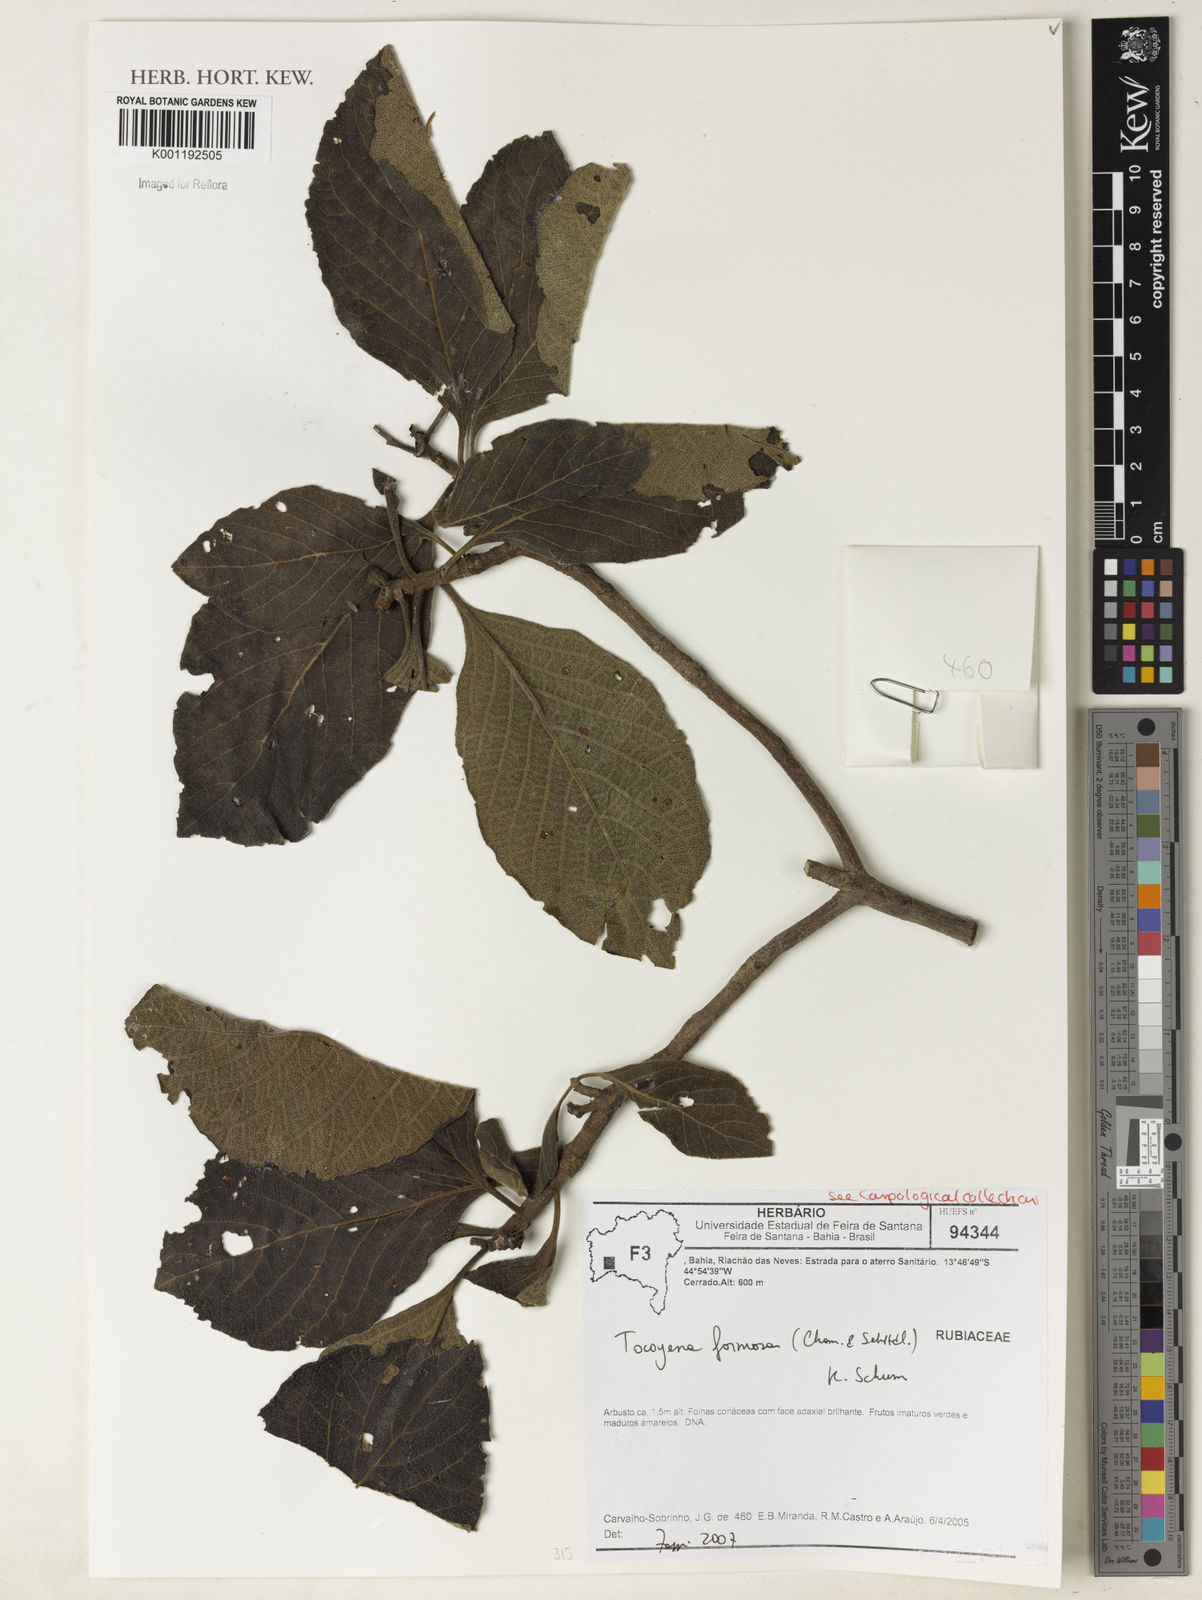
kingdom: Plantae
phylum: Tracheophyta
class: Magnoliopsida
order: Gentianales
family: Rubiaceae
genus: Tocoyena
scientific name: Tocoyena formosa
